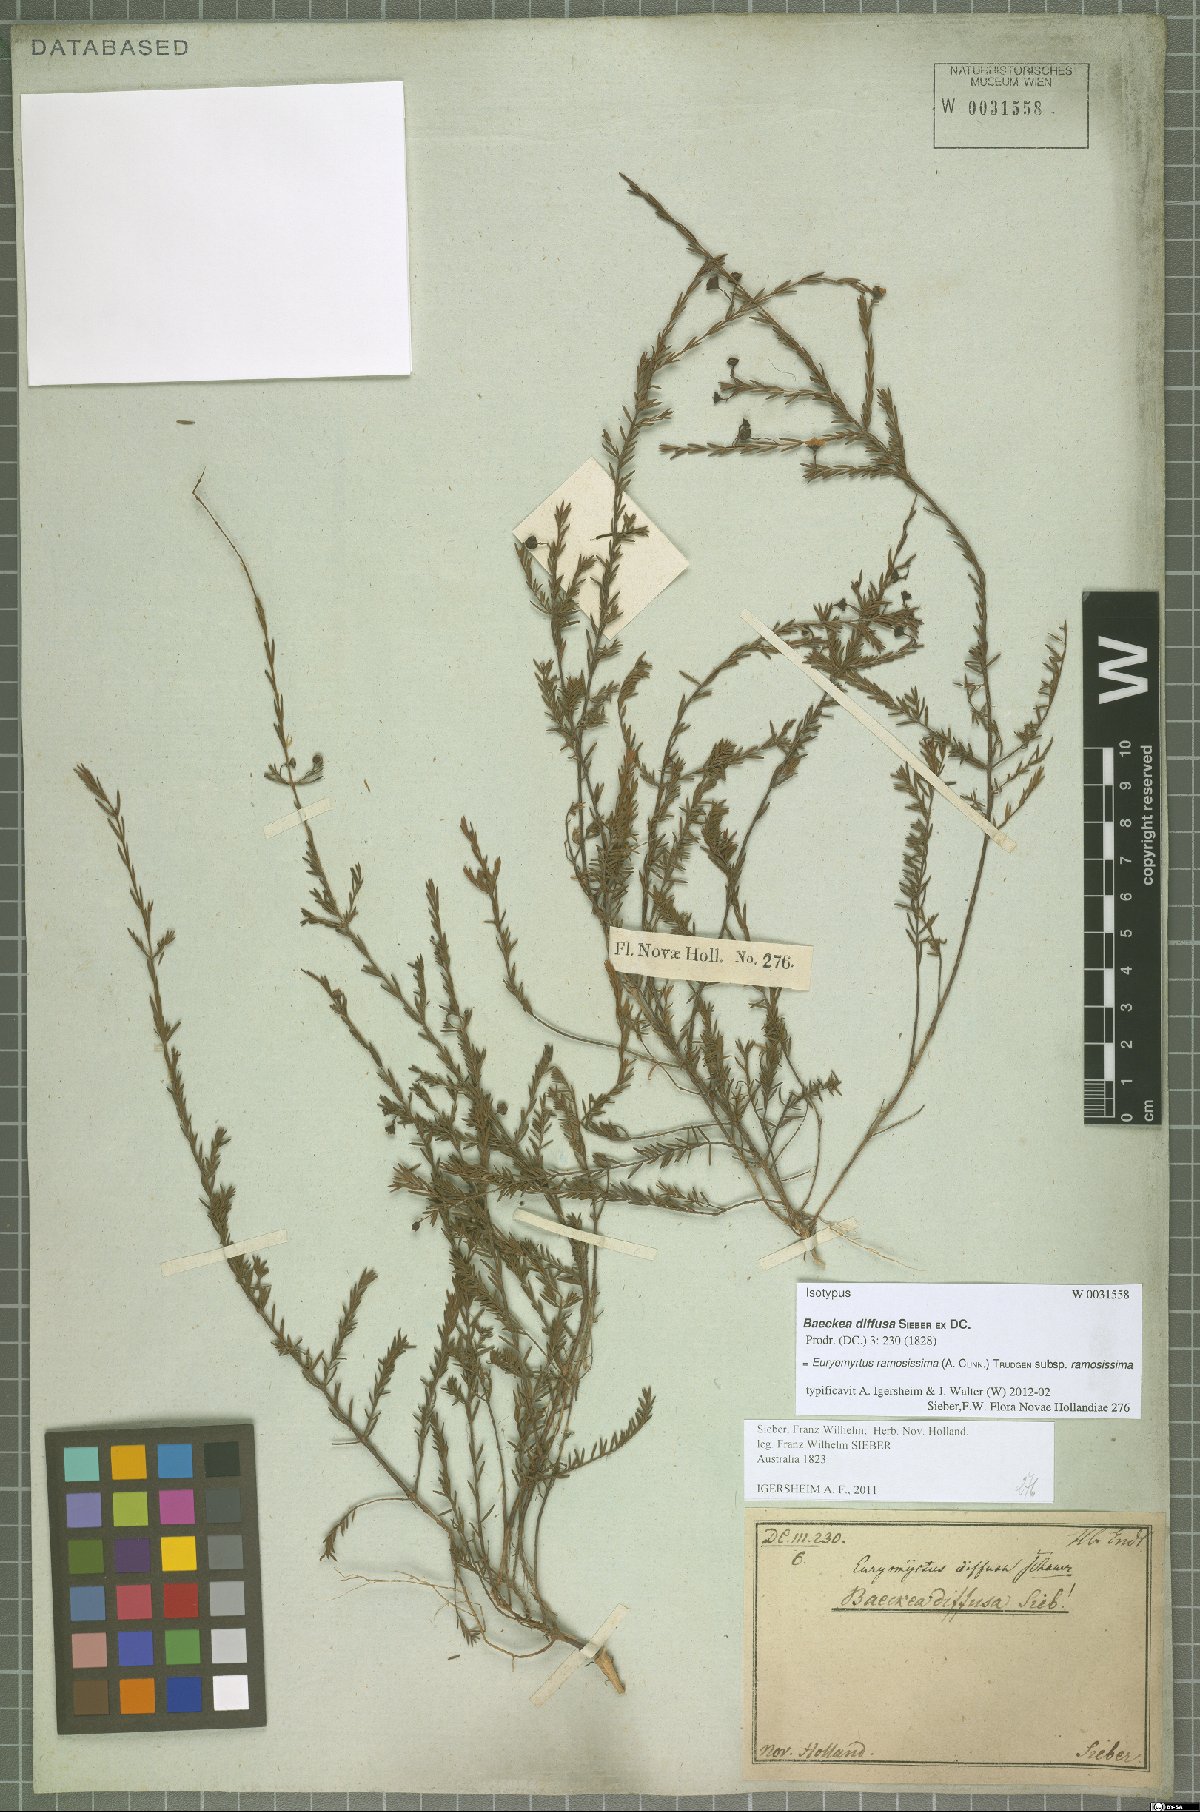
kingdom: Plantae
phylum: Tracheophyta
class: Magnoliopsida
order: Myrtales
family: Myrtaceae
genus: Euryomyrtus
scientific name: Euryomyrtus ramosissima
